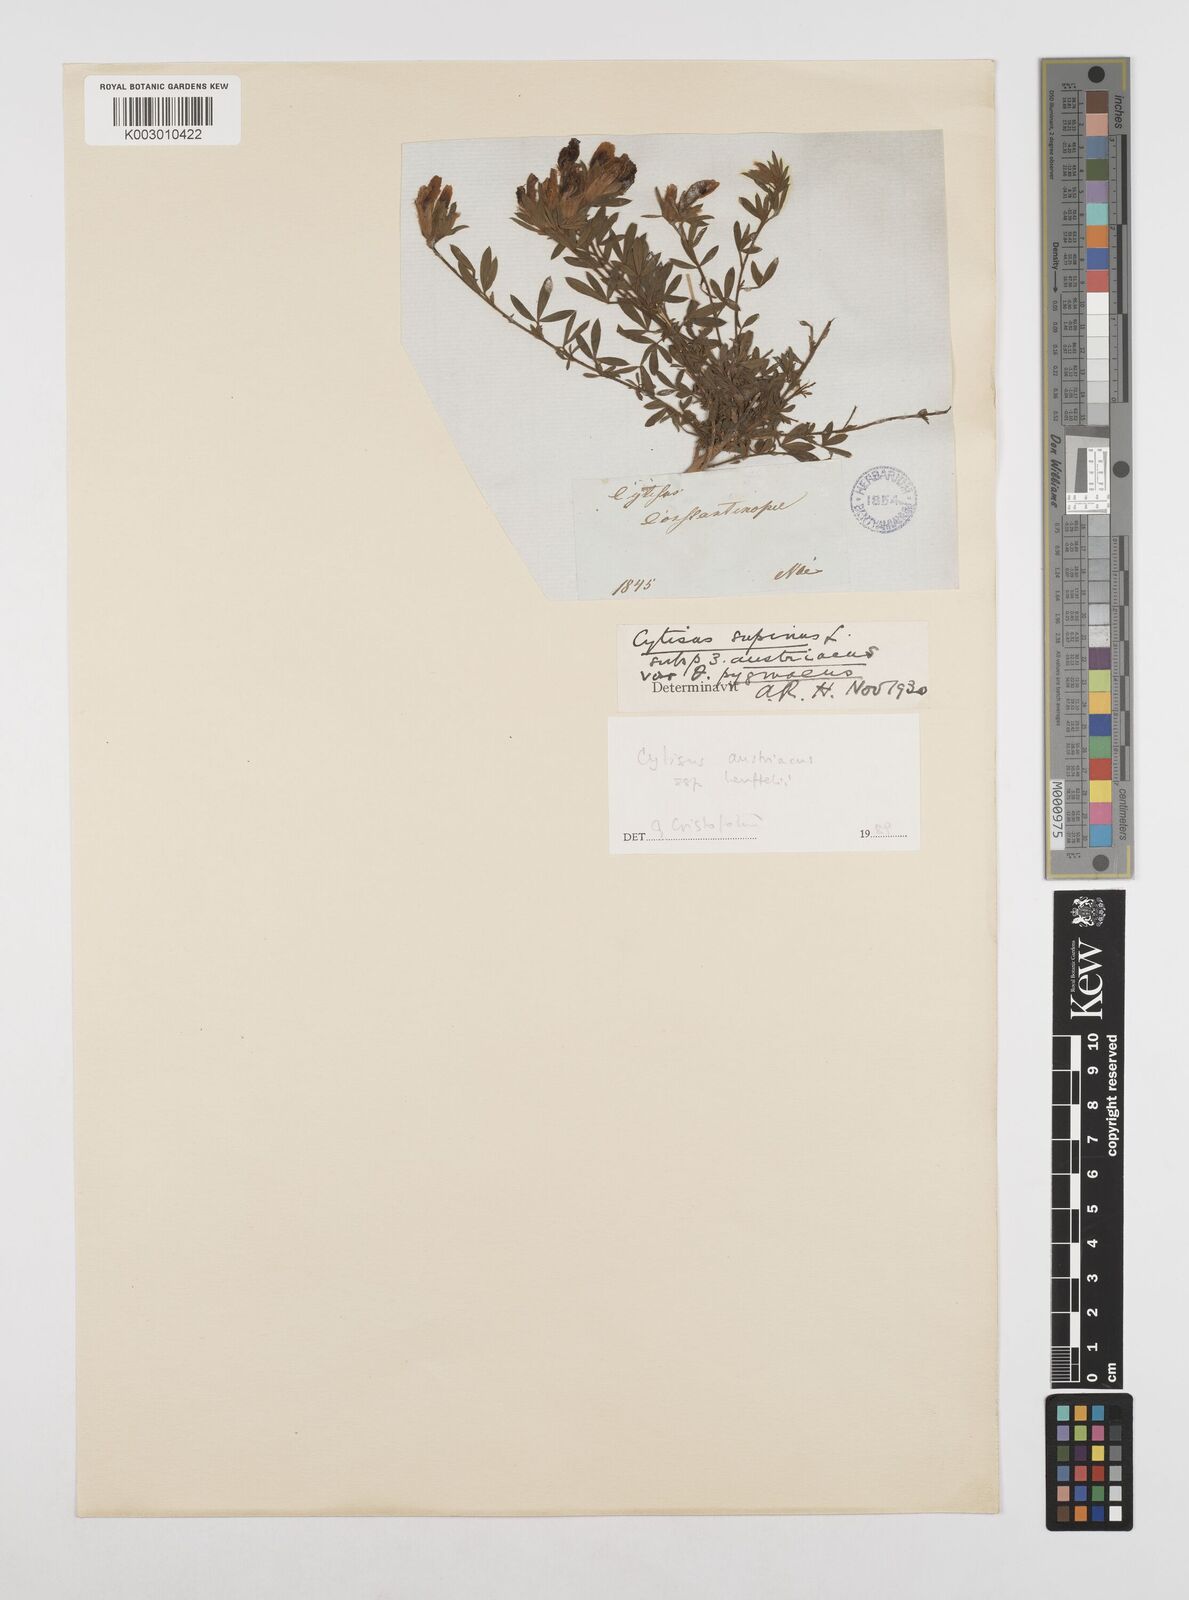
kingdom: Plantae
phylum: Tracheophyta
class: Magnoliopsida
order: Fabales
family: Fabaceae
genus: Chamaecytisus
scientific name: Chamaecytisus austriacus
